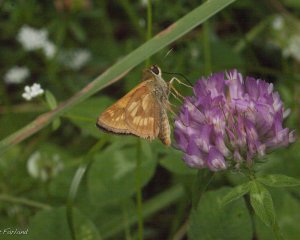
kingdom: Animalia
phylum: Arthropoda
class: Insecta
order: Lepidoptera
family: Hesperiidae
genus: Polites
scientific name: Polites
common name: Long Dash Skipper
